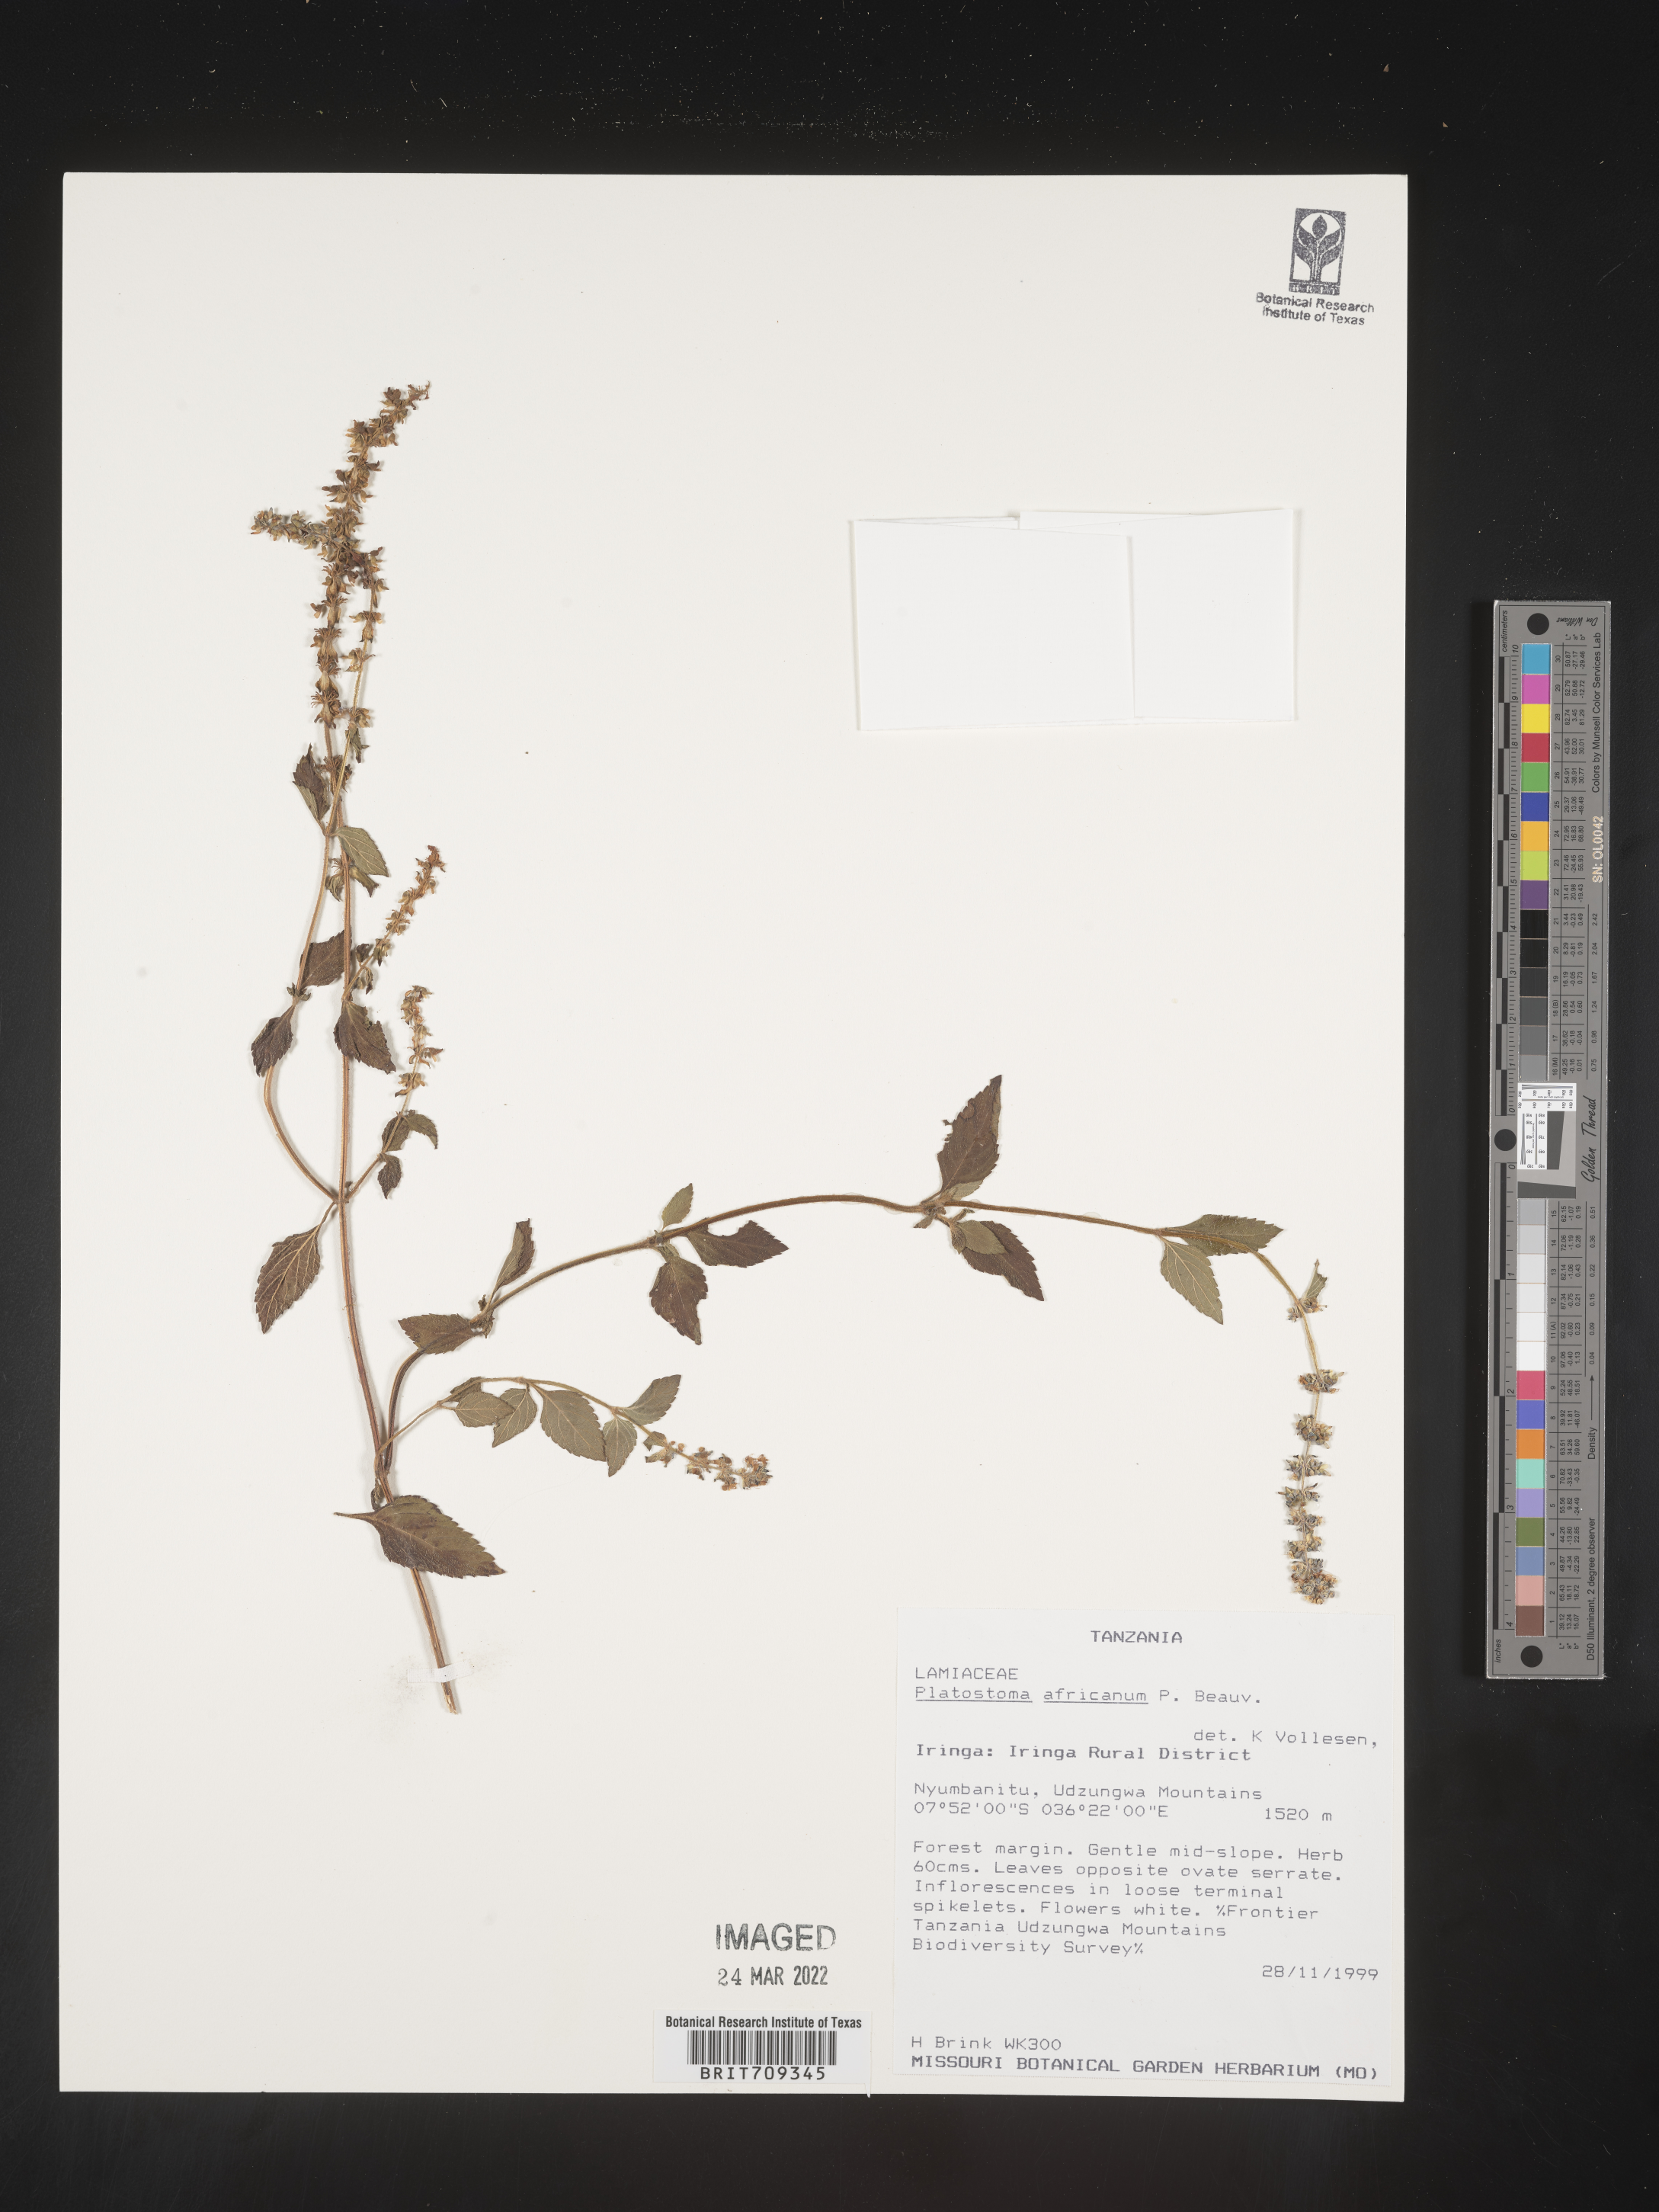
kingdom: Plantae
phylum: Tracheophyta
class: Magnoliopsida
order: Lamiales
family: Lamiaceae
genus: Platystoma
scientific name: Platystoma
